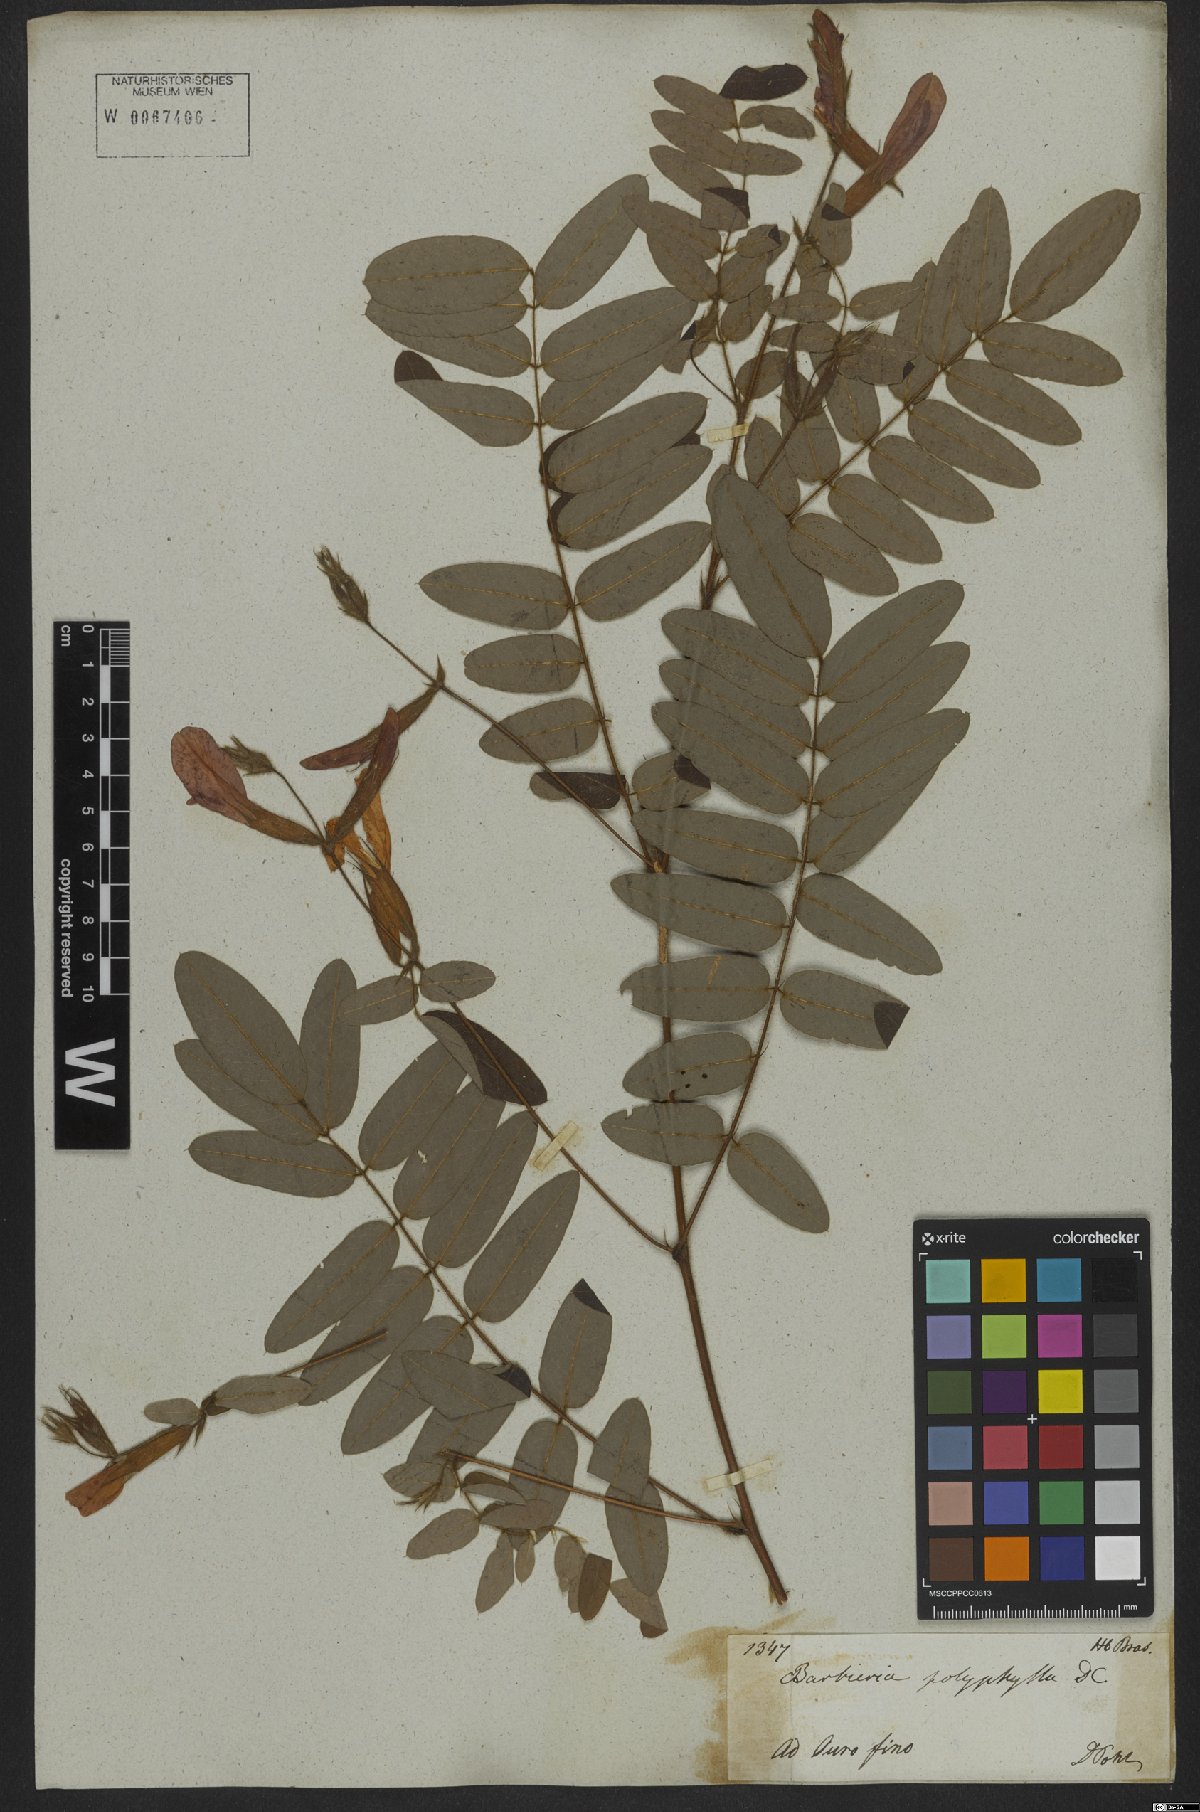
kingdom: Plantae
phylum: Tracheophyta
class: Magnoliopsida
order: Fabales
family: Fabaceae
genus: Barbieria
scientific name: Barbieria pinnata
